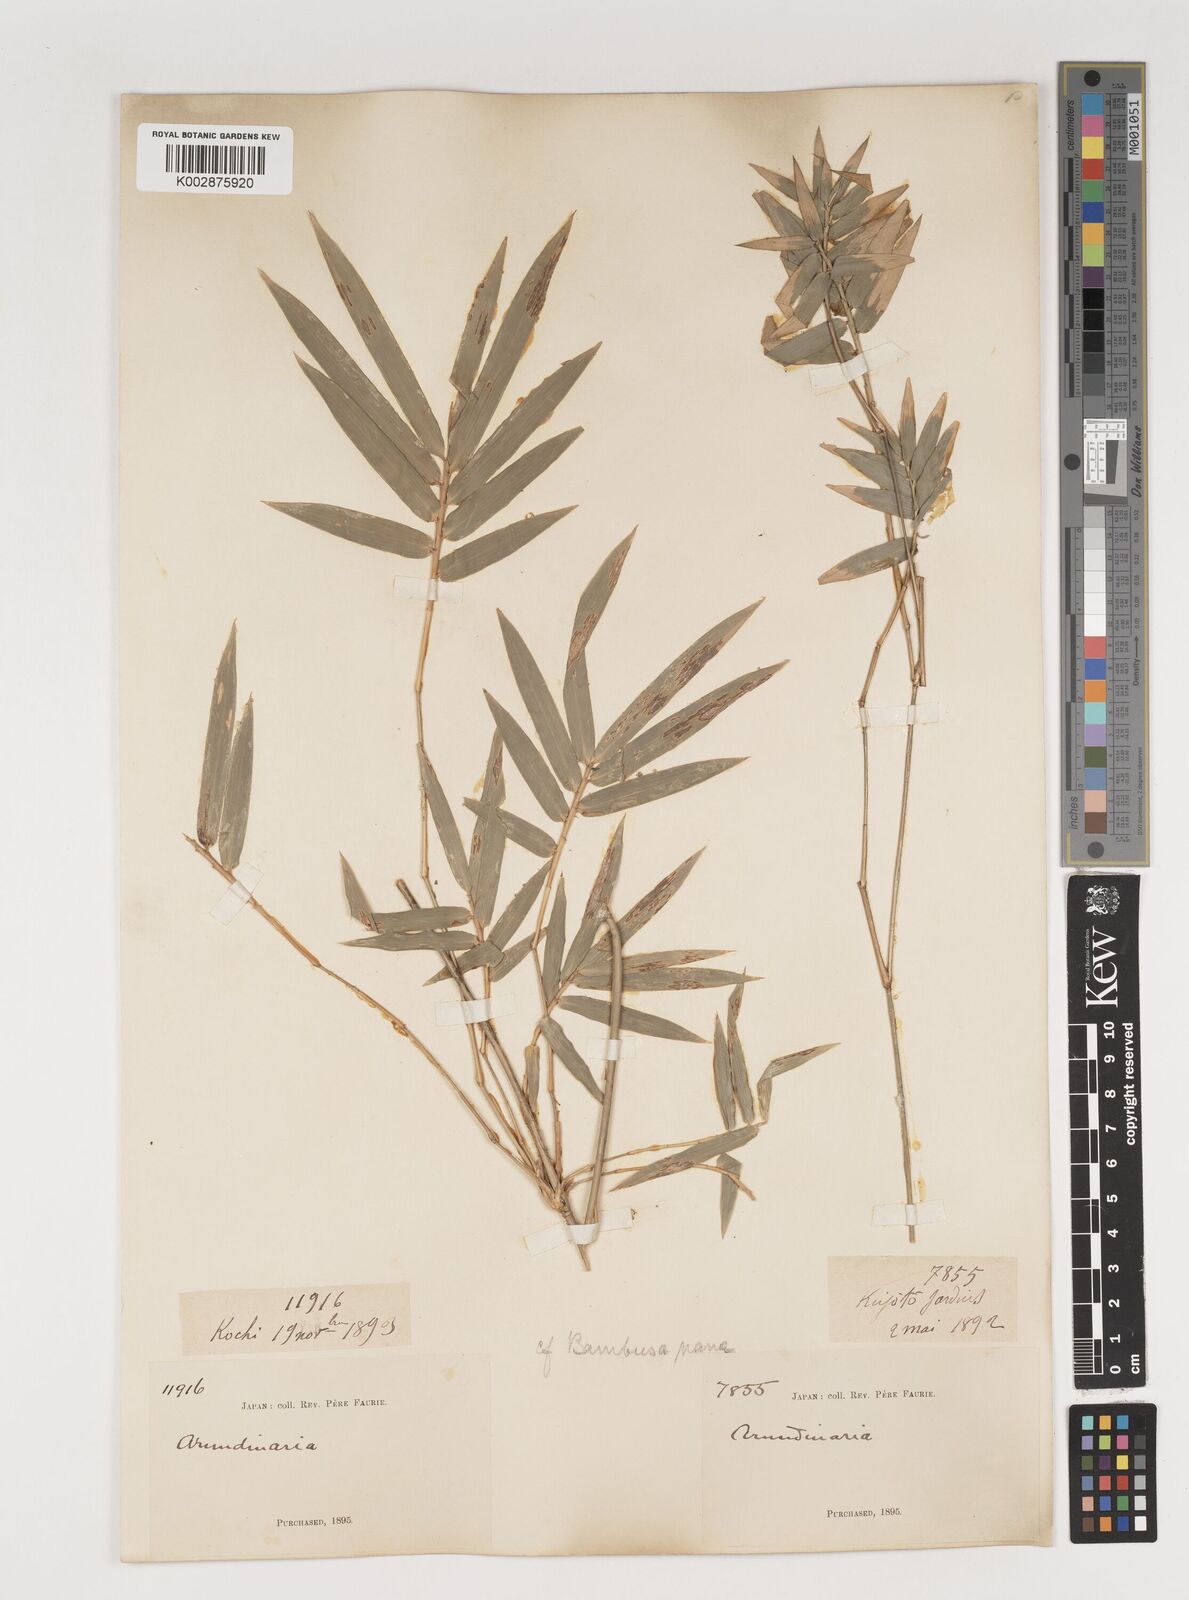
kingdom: Plantae
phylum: Tracheophyta
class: Liliopsida
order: Poales
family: Poaceae
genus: Bambusa
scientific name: Bambusa bambos
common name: Indian thorny bamboo
